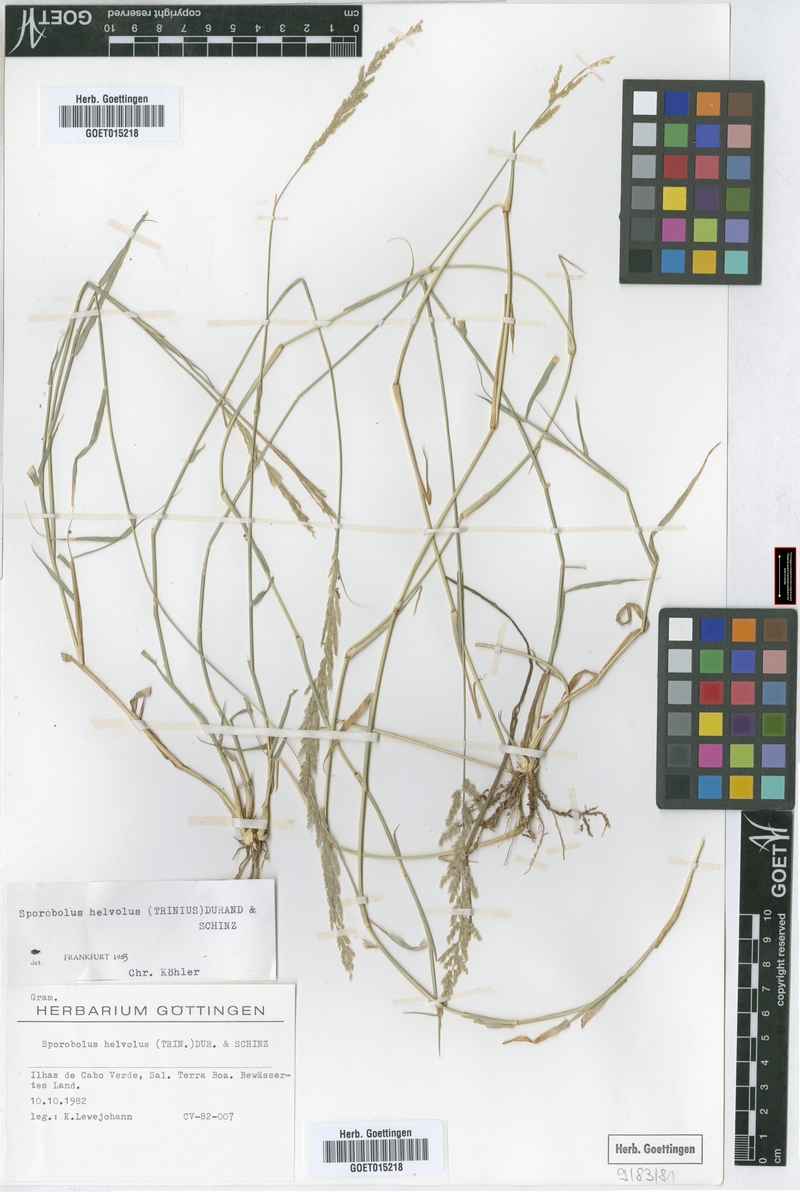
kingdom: Plantae
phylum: Tracheophyta
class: Liliopsida
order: Poales
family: Poaceae
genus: Sporobolus
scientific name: Sporobolus helvolus
